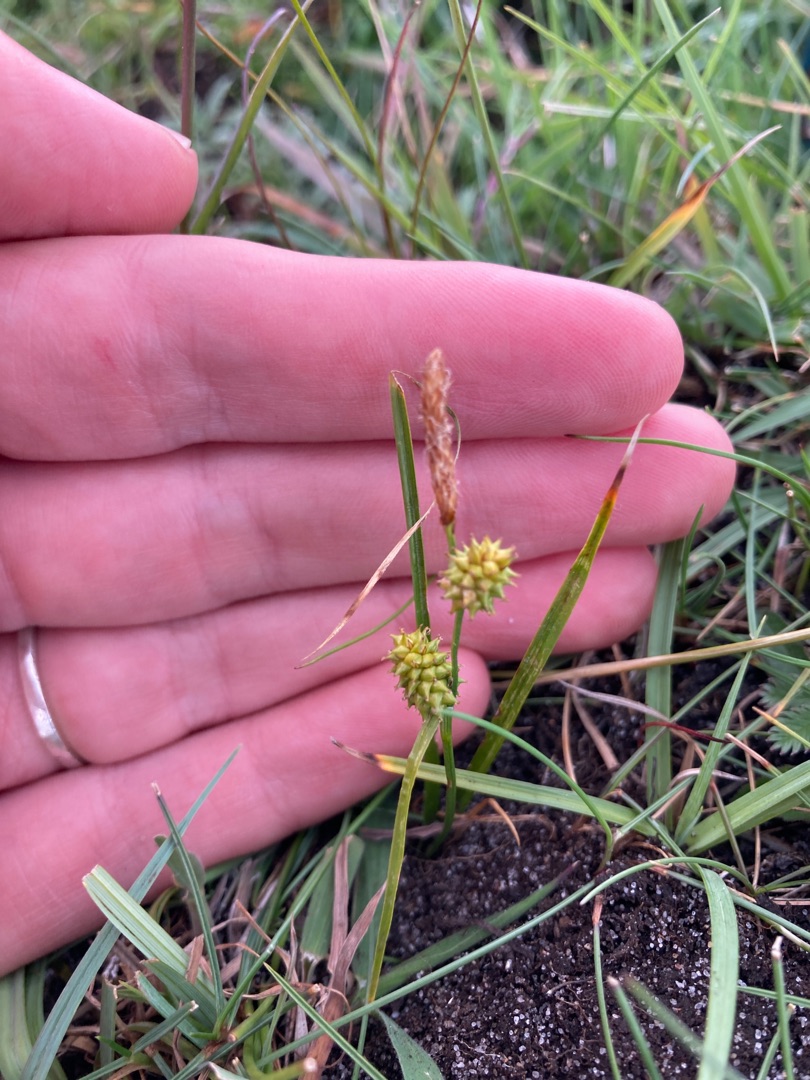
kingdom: Plantae
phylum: Tracheophyta
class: Liliopsida
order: Poales
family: Cyperaceae
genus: Carex
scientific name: Carex demissa
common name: Grøn star
